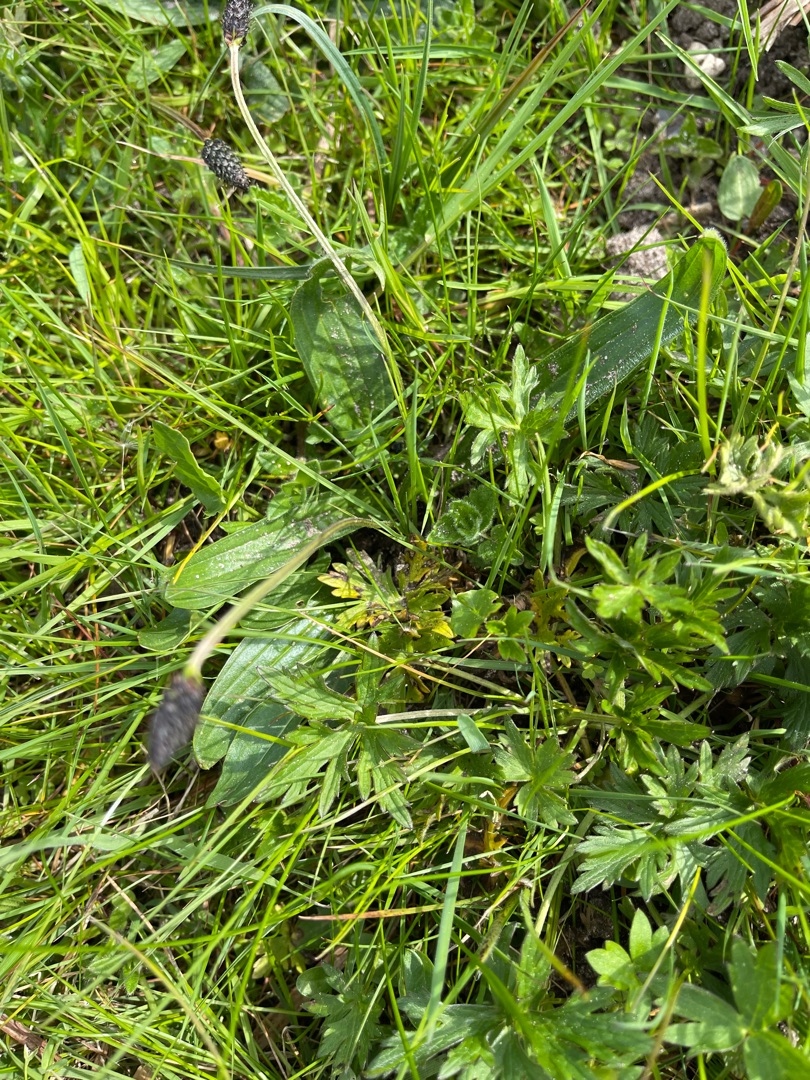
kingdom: Plantae
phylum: Tracheophyta
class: Magnoliopsida
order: Lamiales
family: Plantaginaceae
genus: Plantago
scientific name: Plantago lanceolata
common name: Lancet-vejbred
